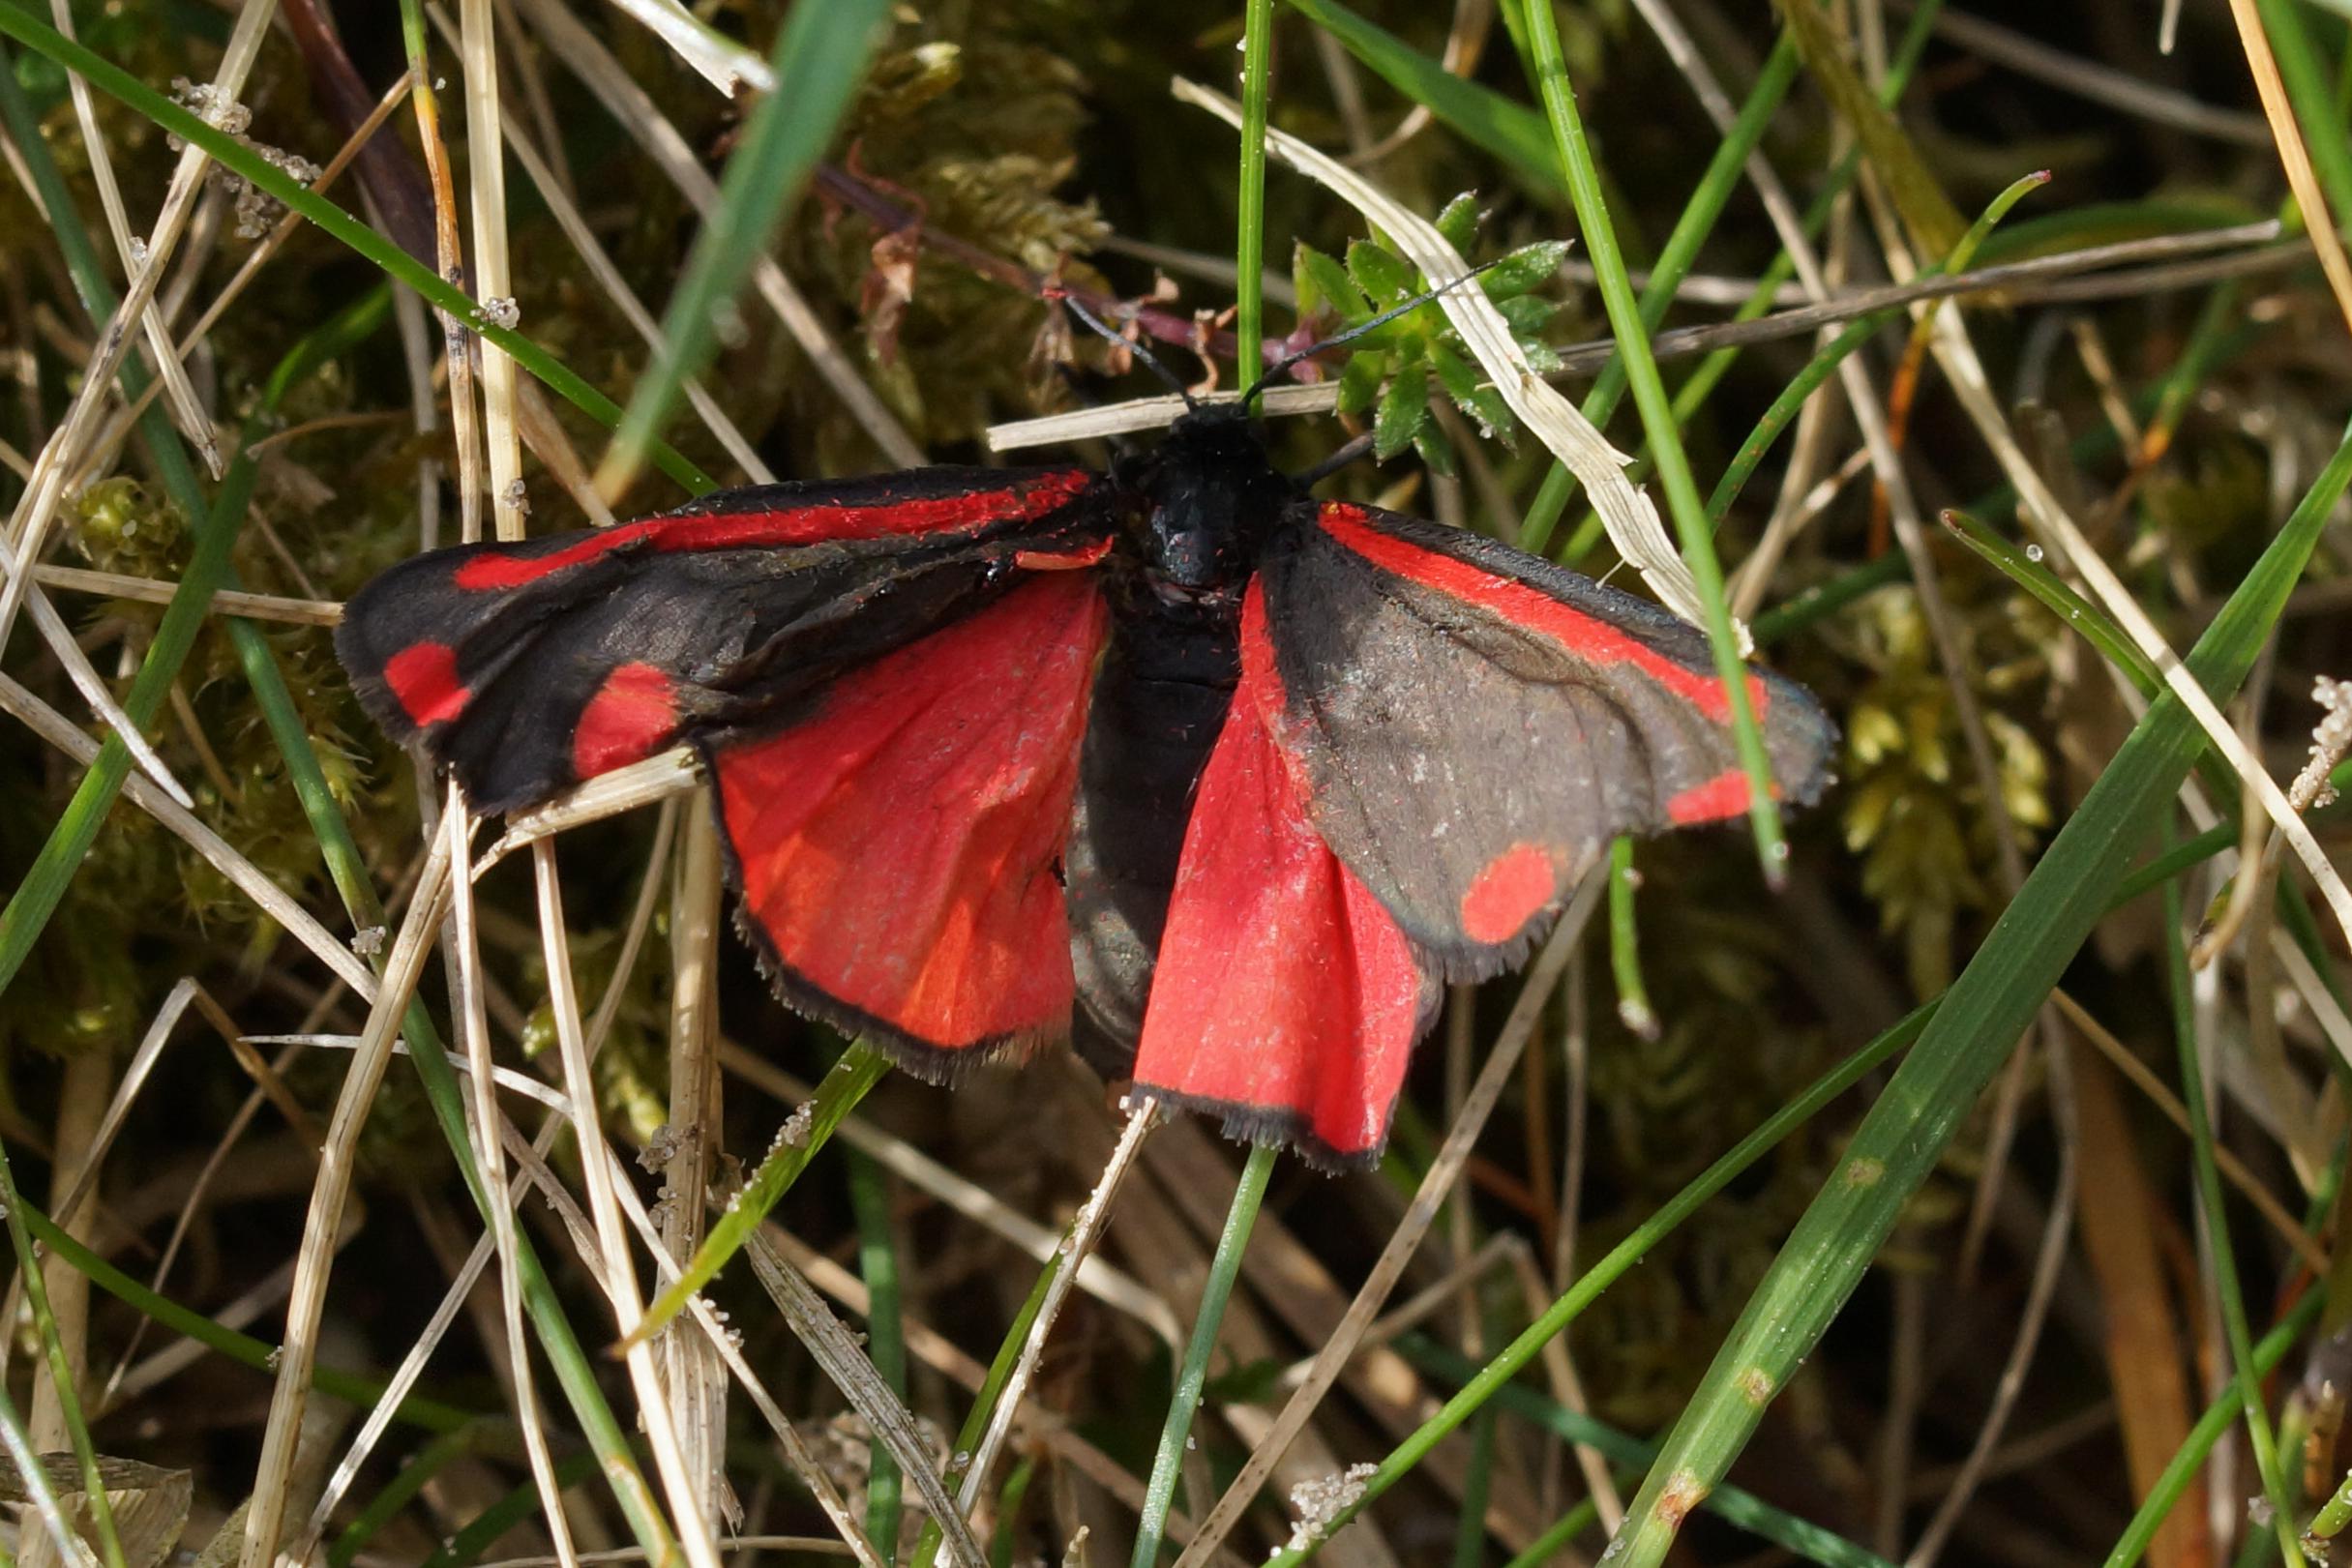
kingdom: Animalia
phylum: Arthropoda
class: Insecta
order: Lepidoptera
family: Erebidae
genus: Tyria
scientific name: Tyria jacobaeae
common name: Blodplet
